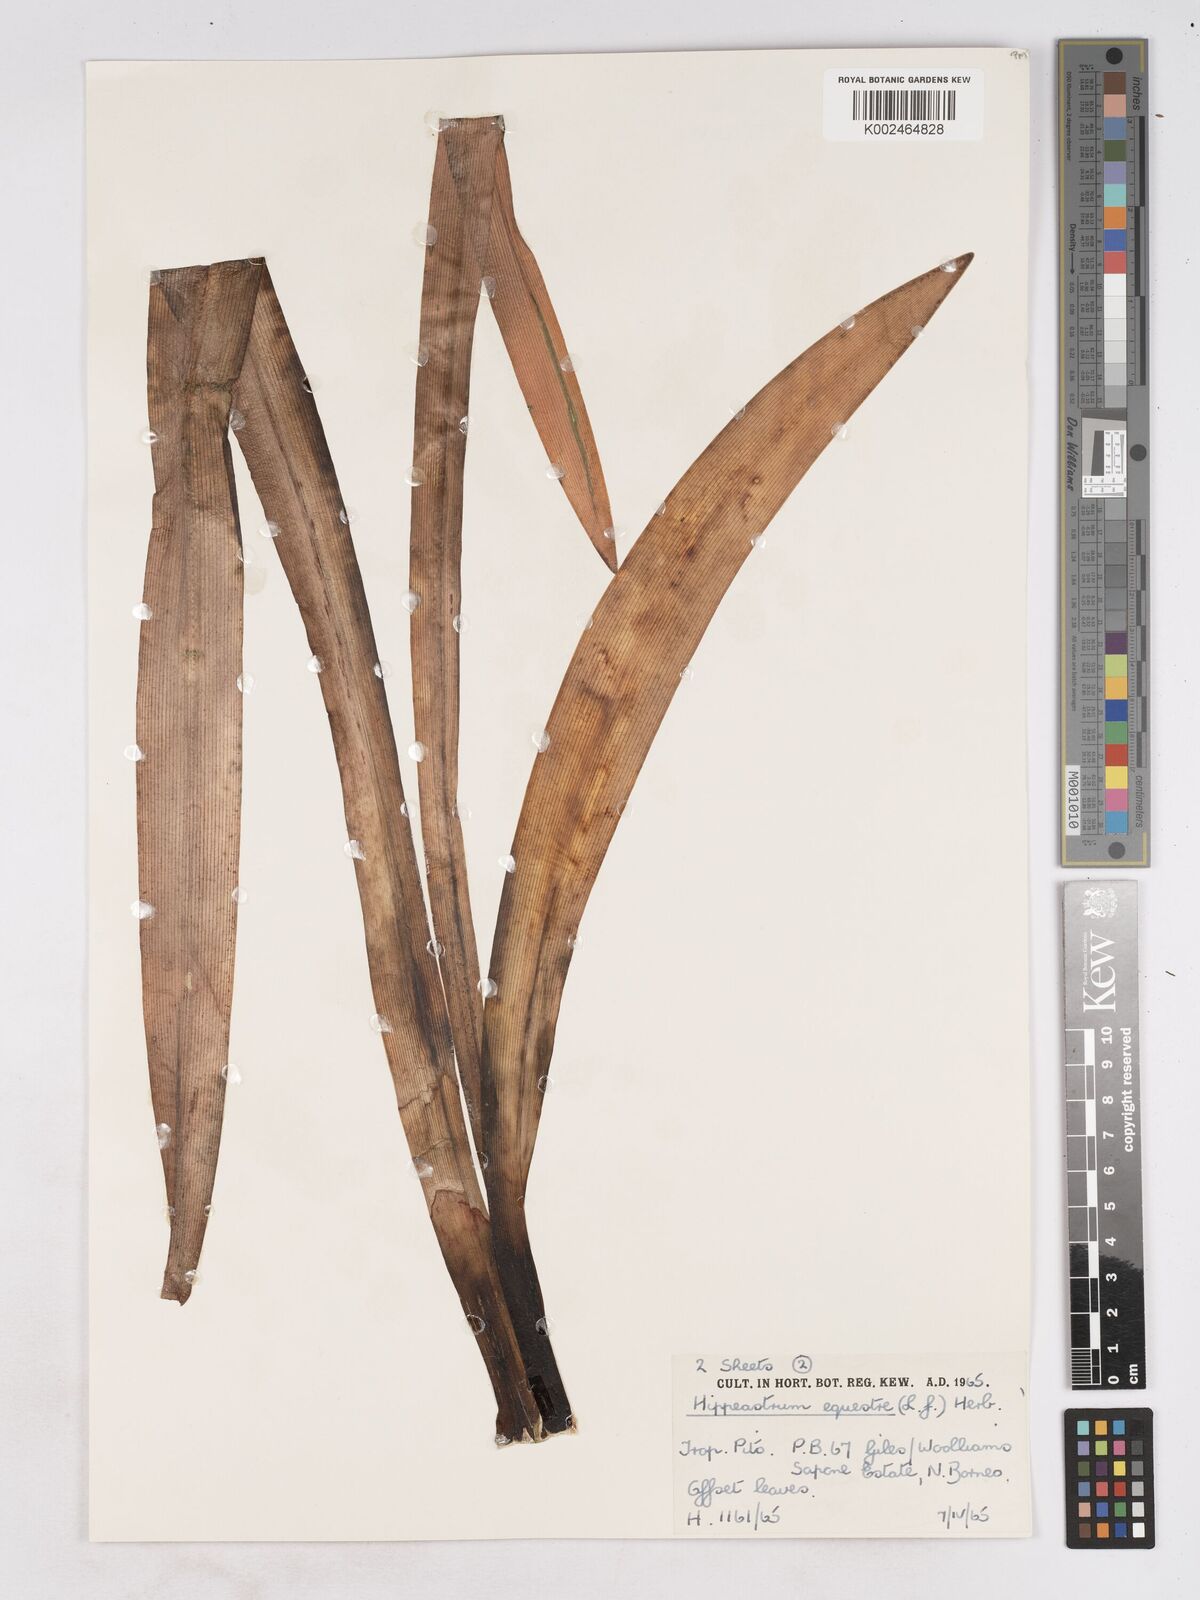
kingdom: Plantae
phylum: Tracheophyta
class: Liliopsida
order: Asparagales
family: Amaryllidaceae
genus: Hippeastrum
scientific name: Hippeastrum puniceum
